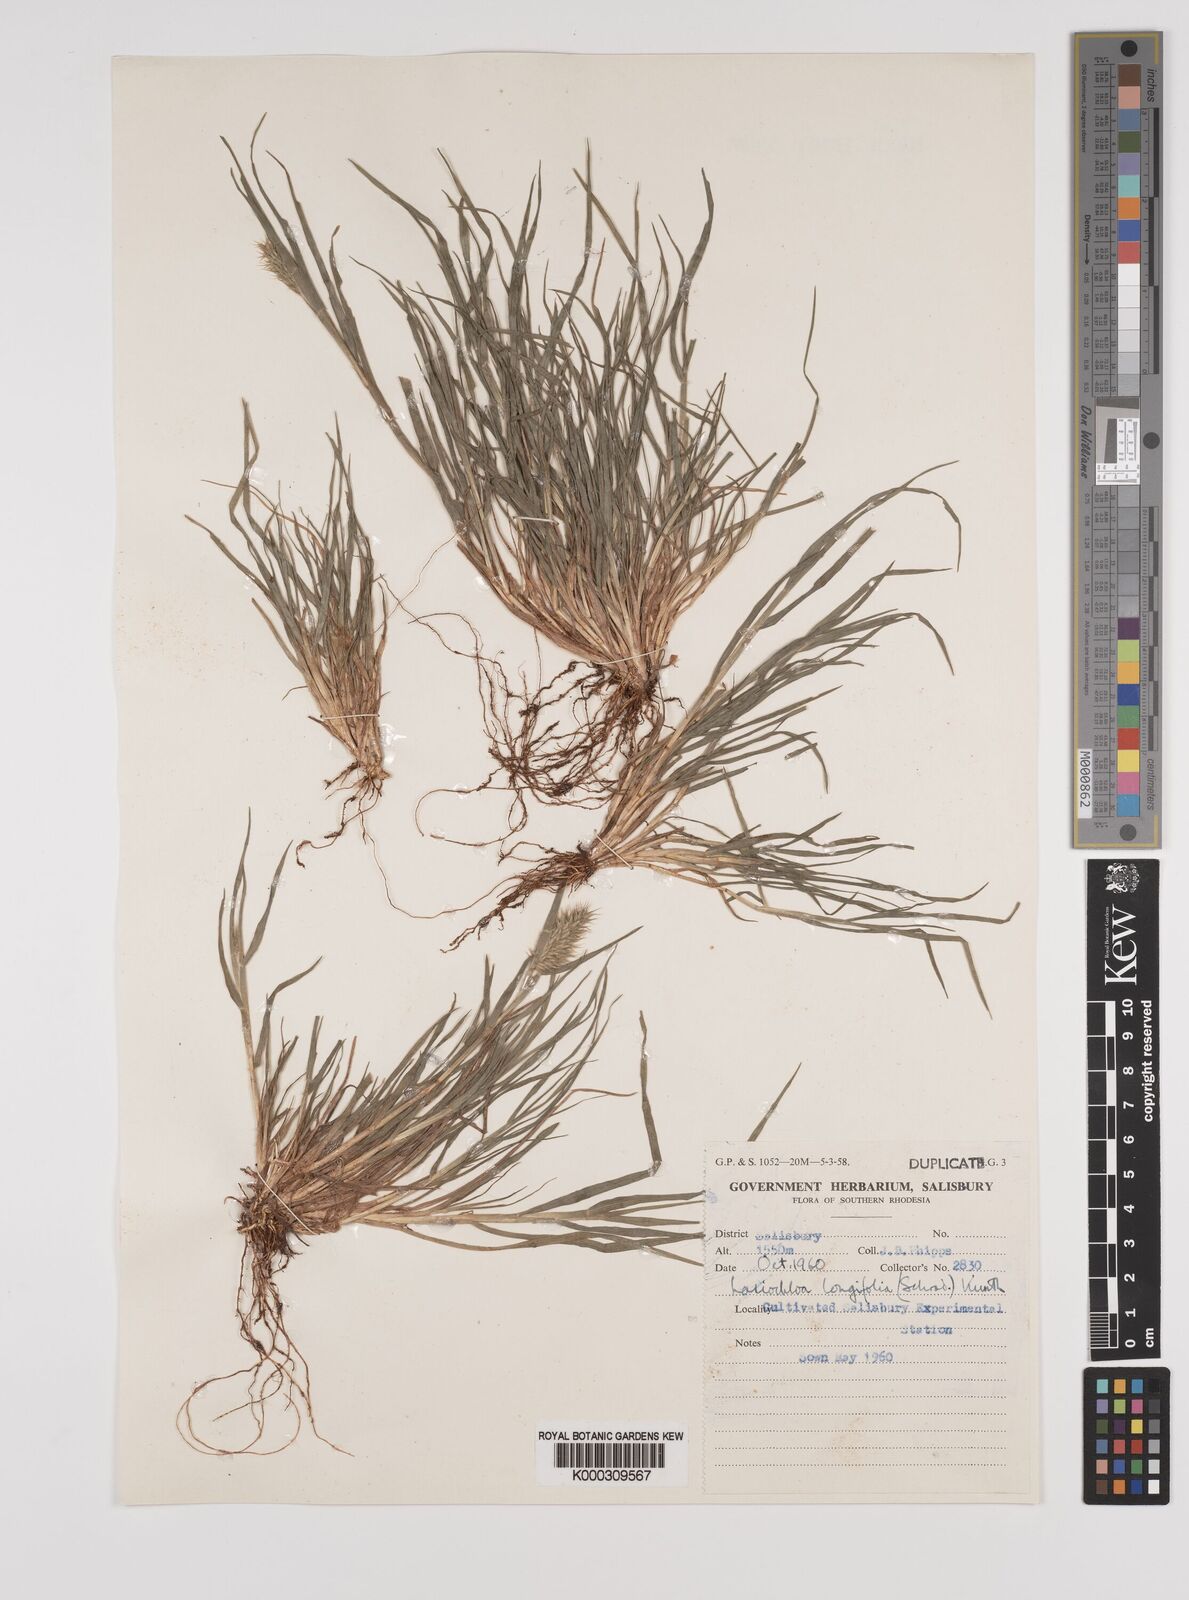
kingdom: Plantae
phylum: Tracheophyta
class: Liliopsida
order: Poales
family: Poaceae
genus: Tribolium
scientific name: Tribolium
